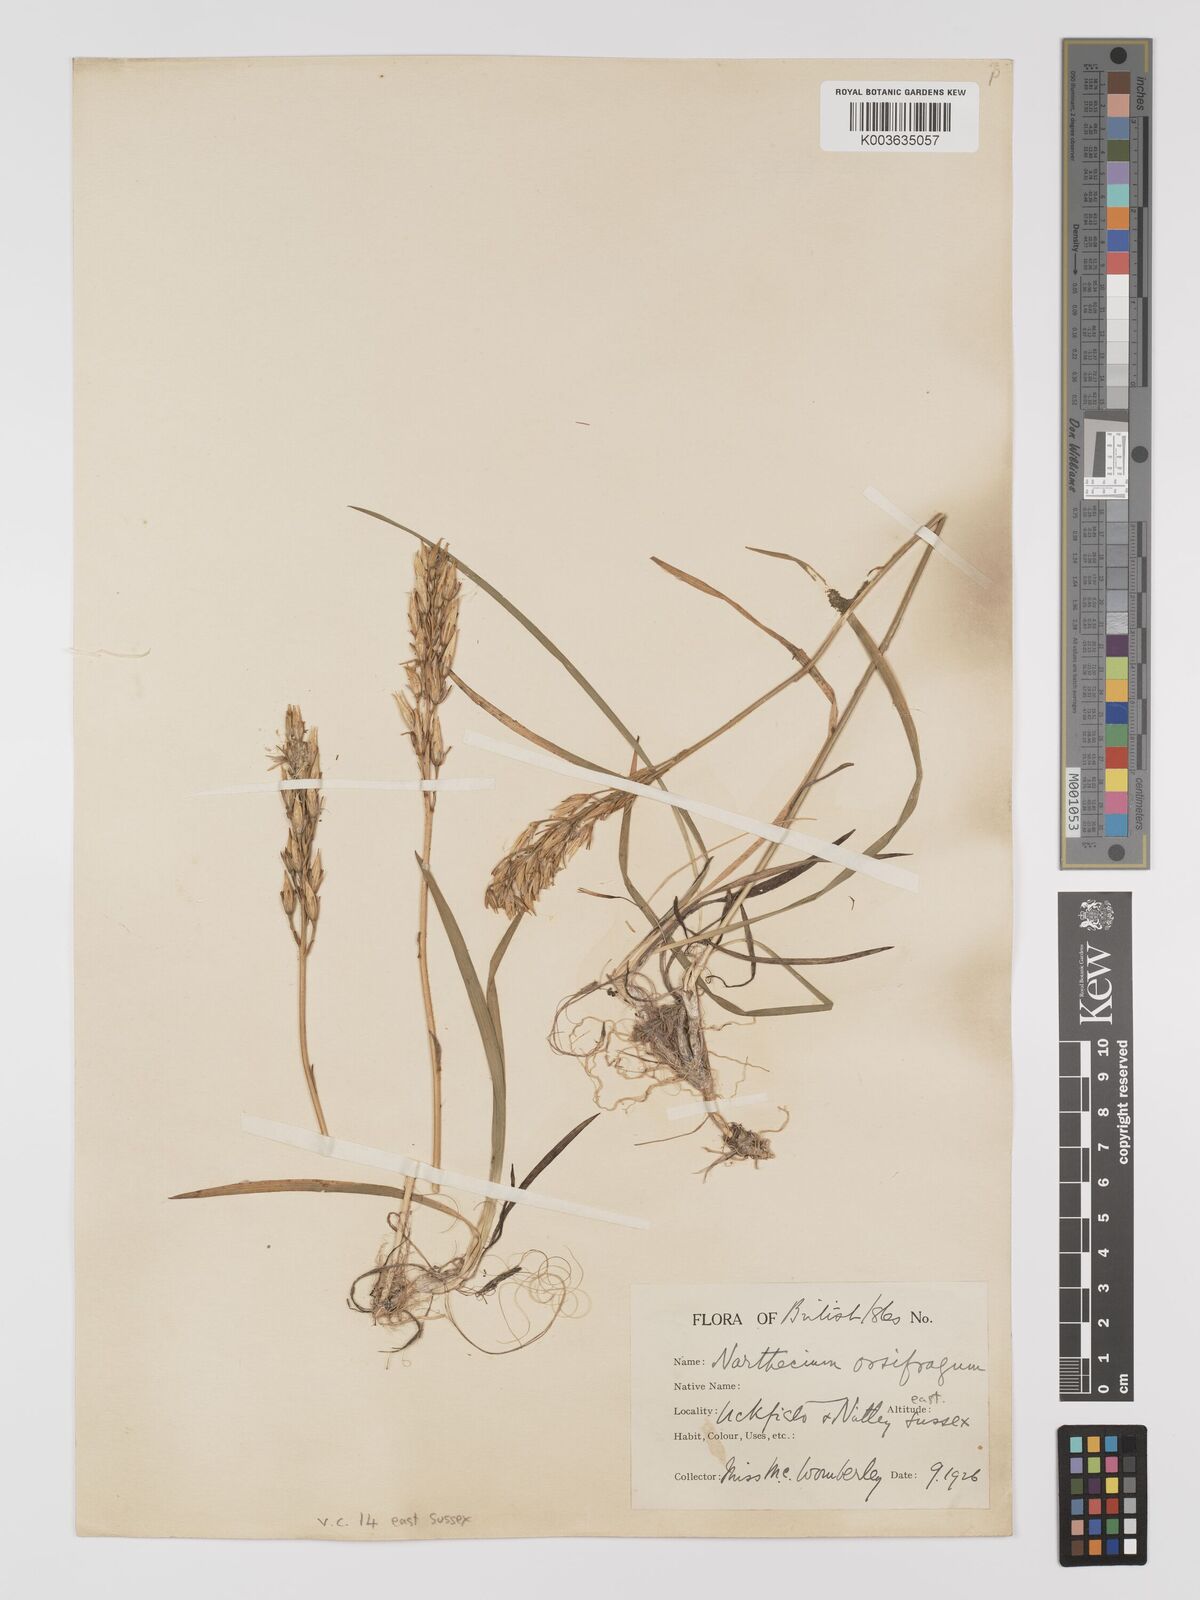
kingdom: Plantae
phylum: Tracheophyta
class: Liliopsida
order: Dioscoreales
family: Nartheciaceae
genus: Narthecium
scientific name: Narthecium
